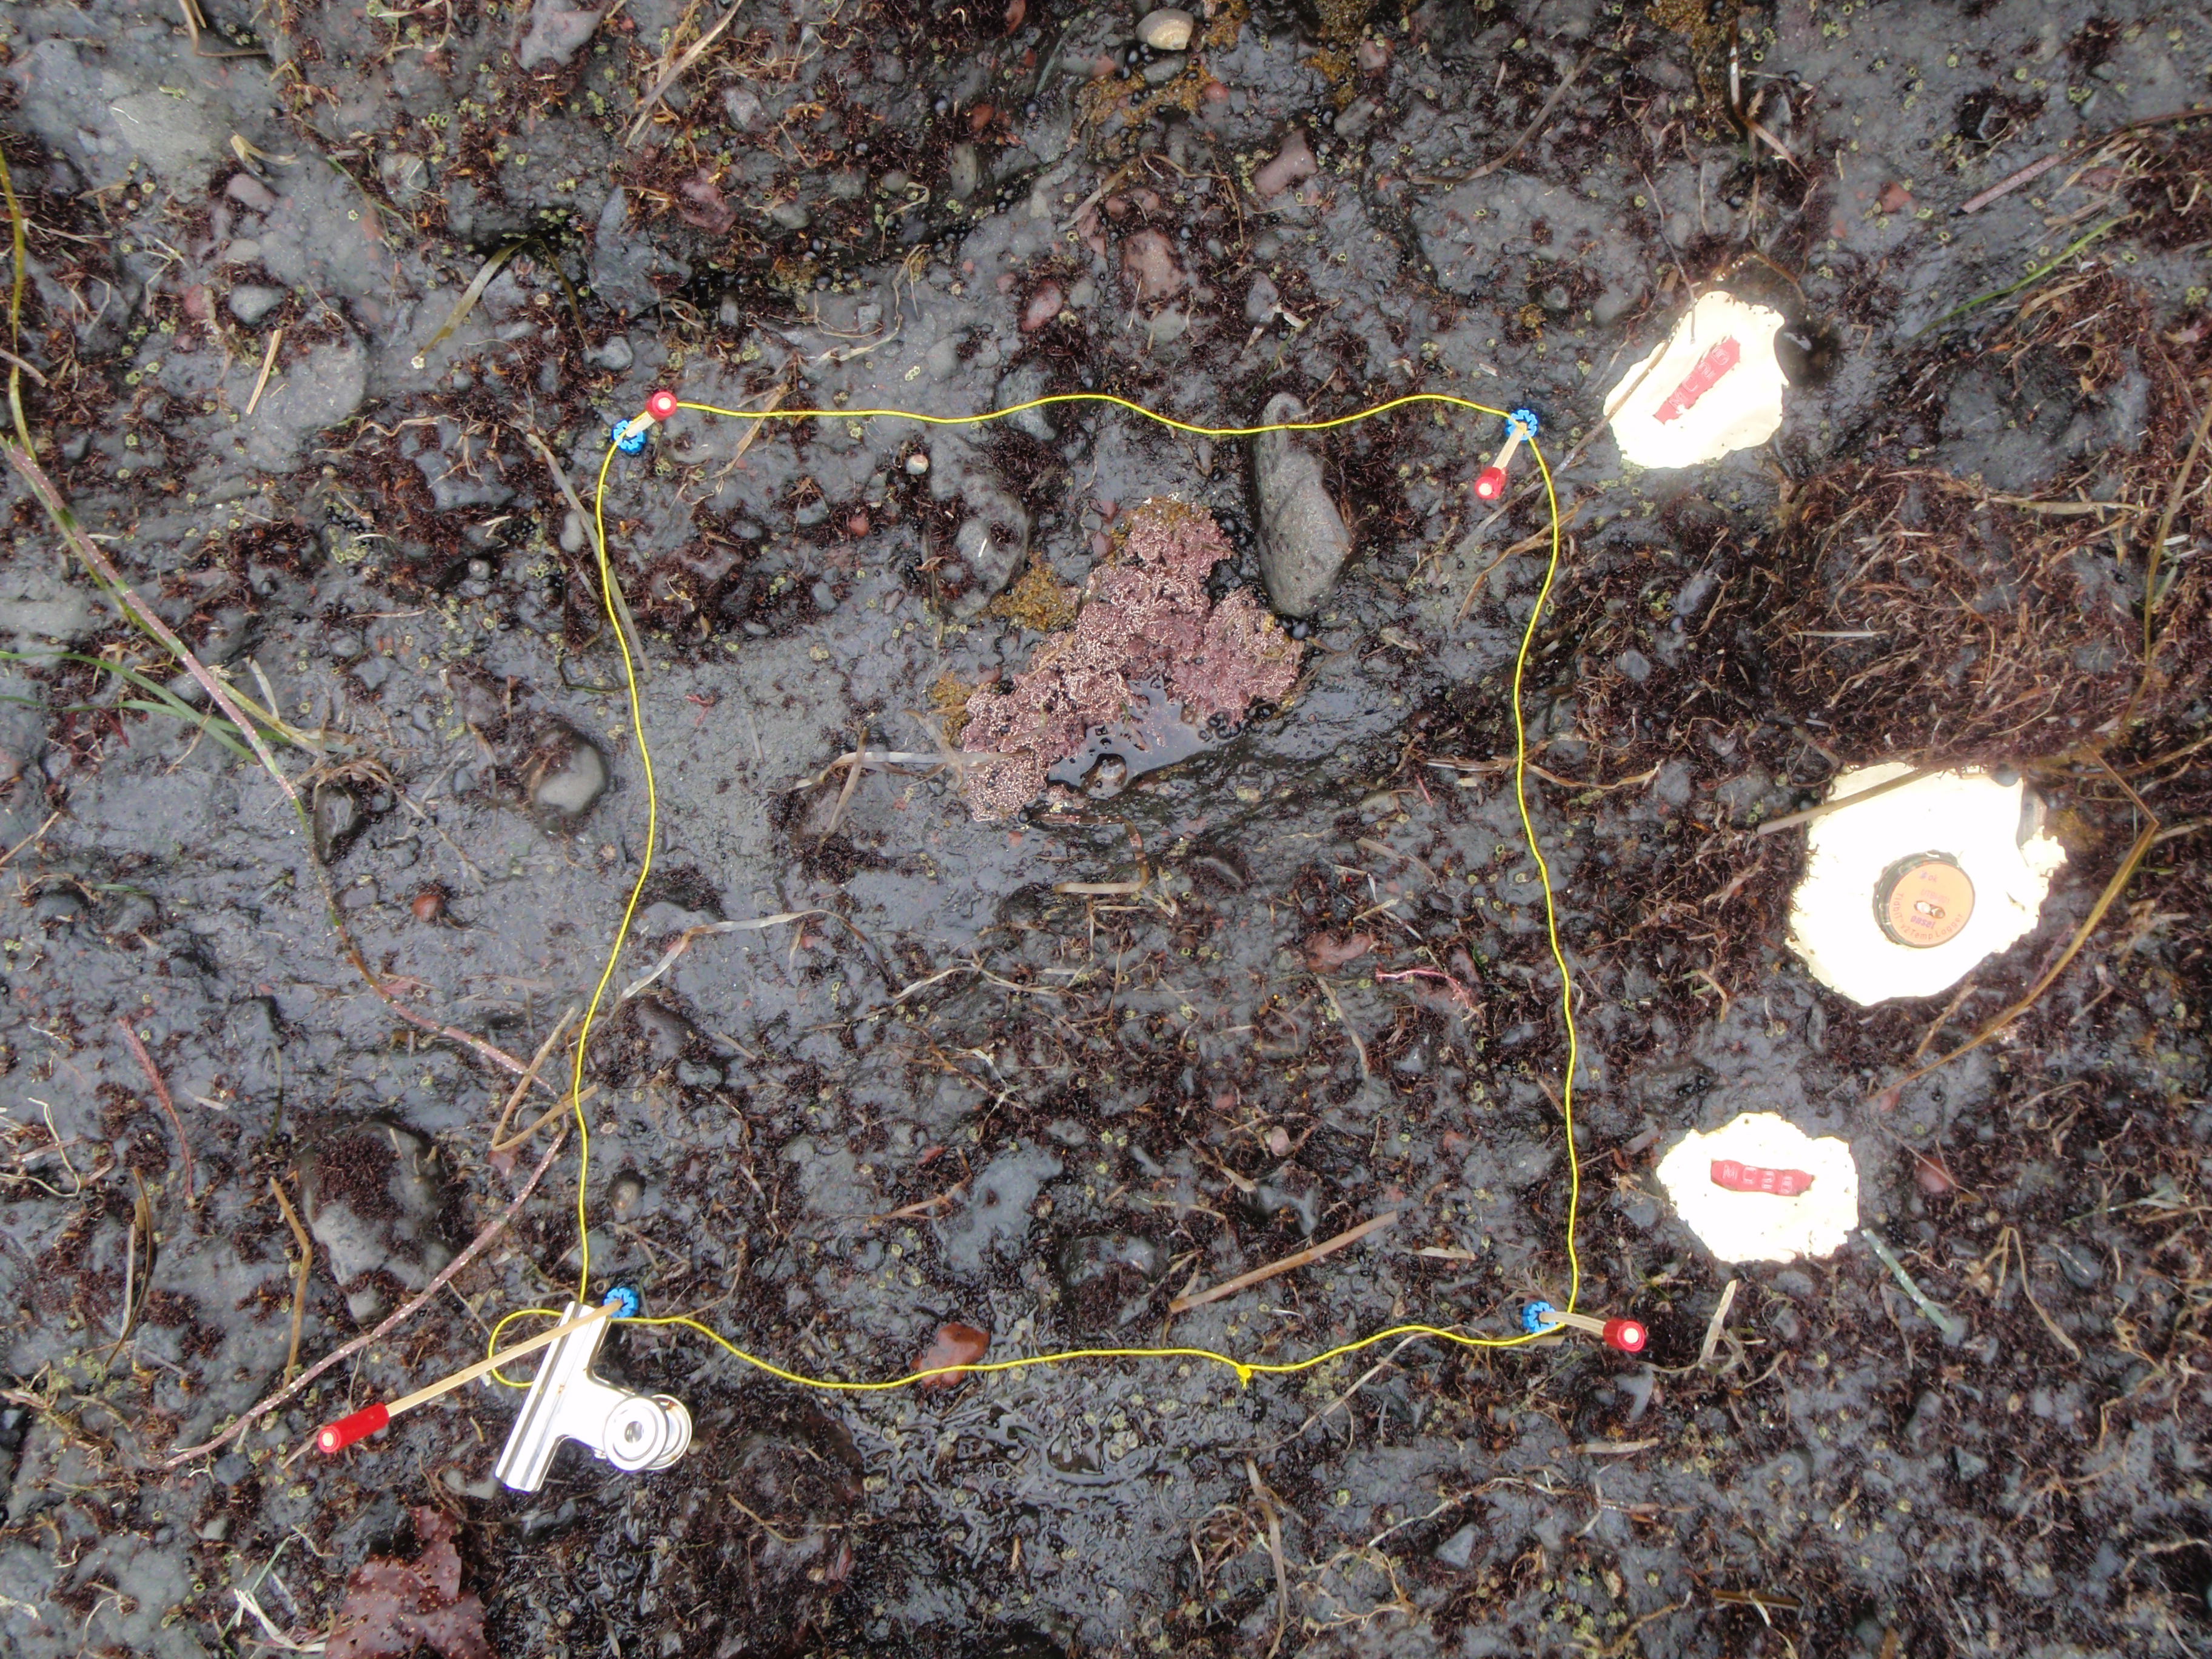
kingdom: Plantae
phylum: Rhodophyta
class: Florideophyceae
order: Corallinales
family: Corallinaceae
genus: Corallina
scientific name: Corallina pilulifera
